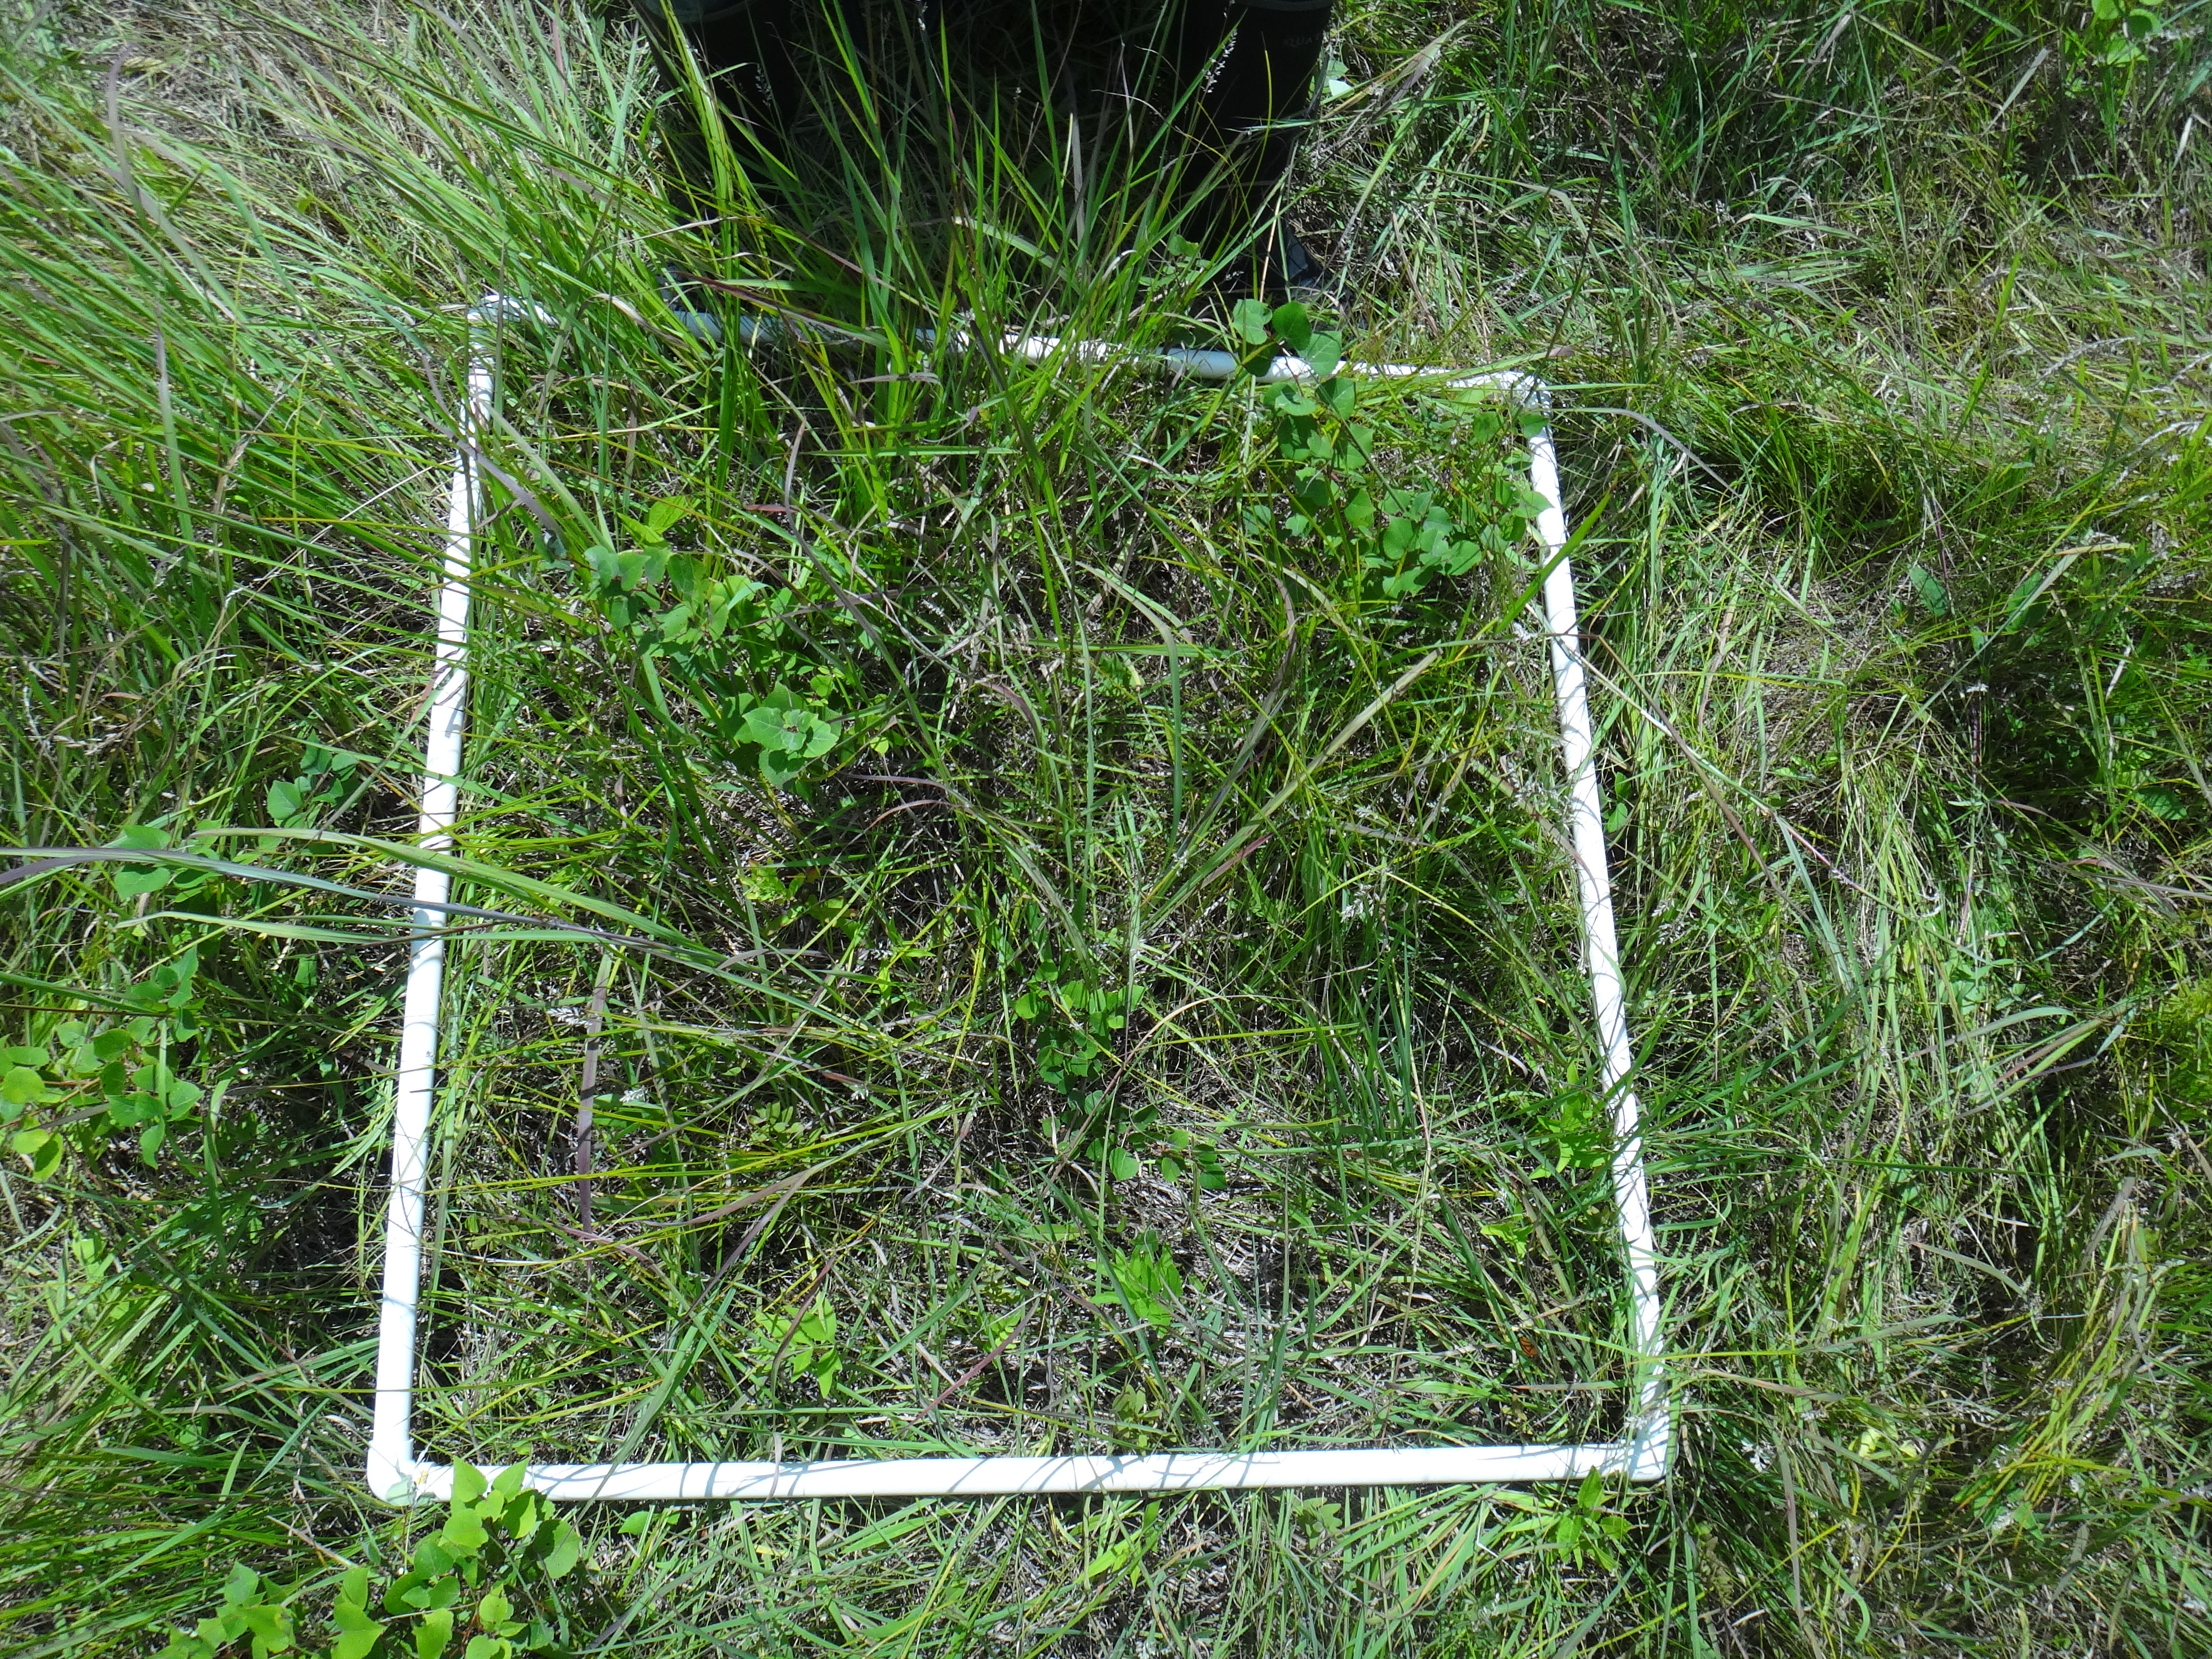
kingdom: Plantae
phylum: Tracheophyta
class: Magnoliopsida
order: Fabales
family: Fabaceae
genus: Lathyrus
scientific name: Lathyrus palustris
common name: Marsh pea
